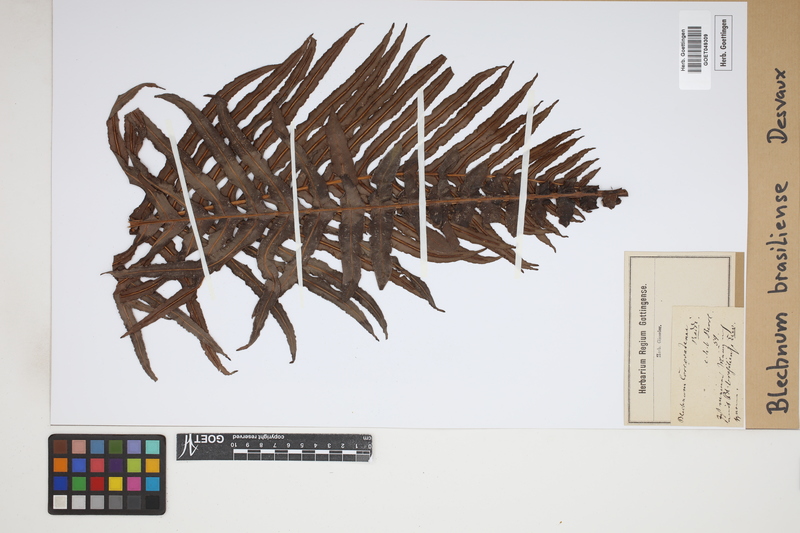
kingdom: Plantae
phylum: Tracheophyta
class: Polypodiopsida
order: Polypodiales
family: Blechnaceae
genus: Neoblechnum
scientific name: Neoblechnum brasiliense
